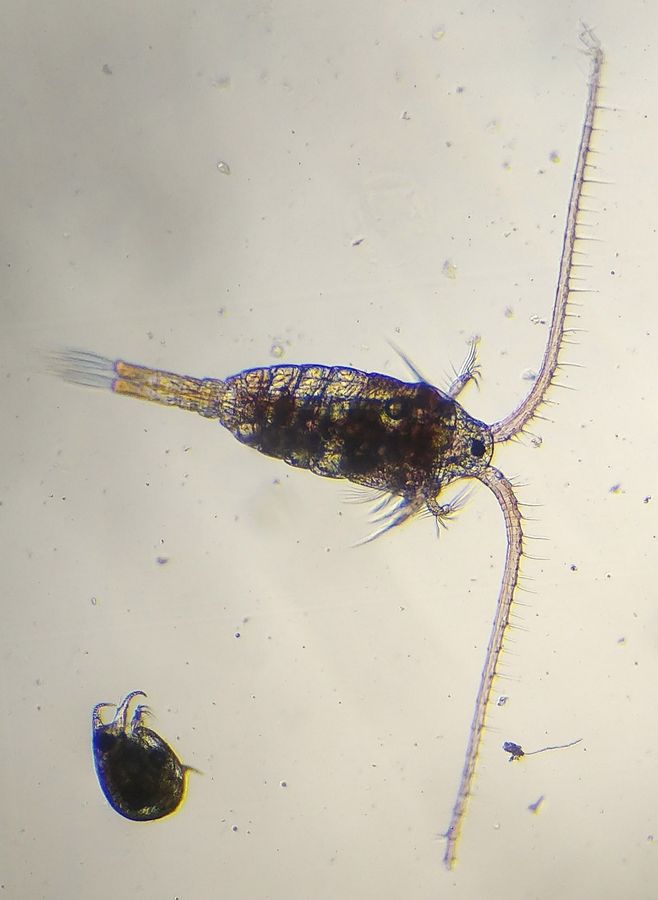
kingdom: Animalia
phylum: Arthropoda
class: Copepoda
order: Calanoida
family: Temoridae
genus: Heterocope
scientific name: Heterocope appendiculata
